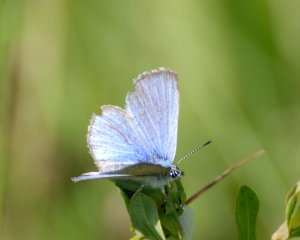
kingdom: Animalia
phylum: Arthropoda
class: Insecta
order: Lepidoptera
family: Lycaenidae
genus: Glaucopsyche
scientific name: Glaucopsyche lygdamus
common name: Silvery Blue
